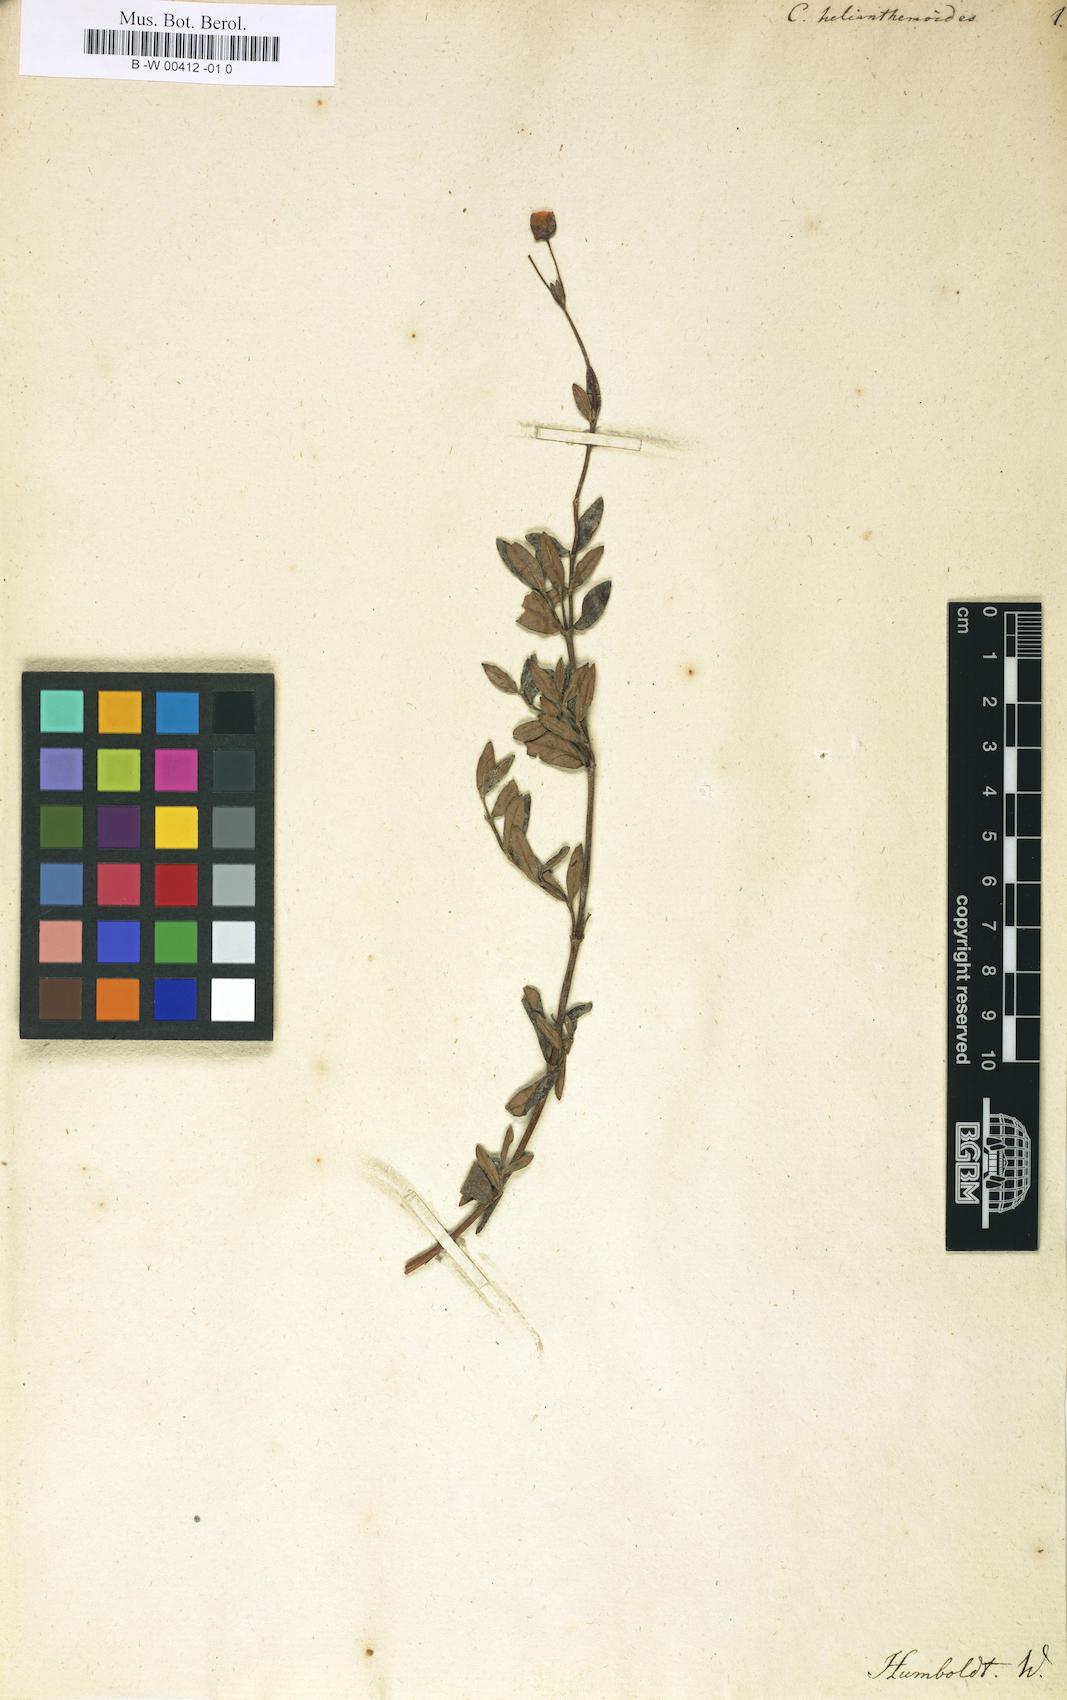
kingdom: Plantae
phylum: Tracheophyta
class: Magnoliopsida
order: Lamiales
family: Calceolariaceae
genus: Calceolaria
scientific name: Calceolaria helianthemoides
